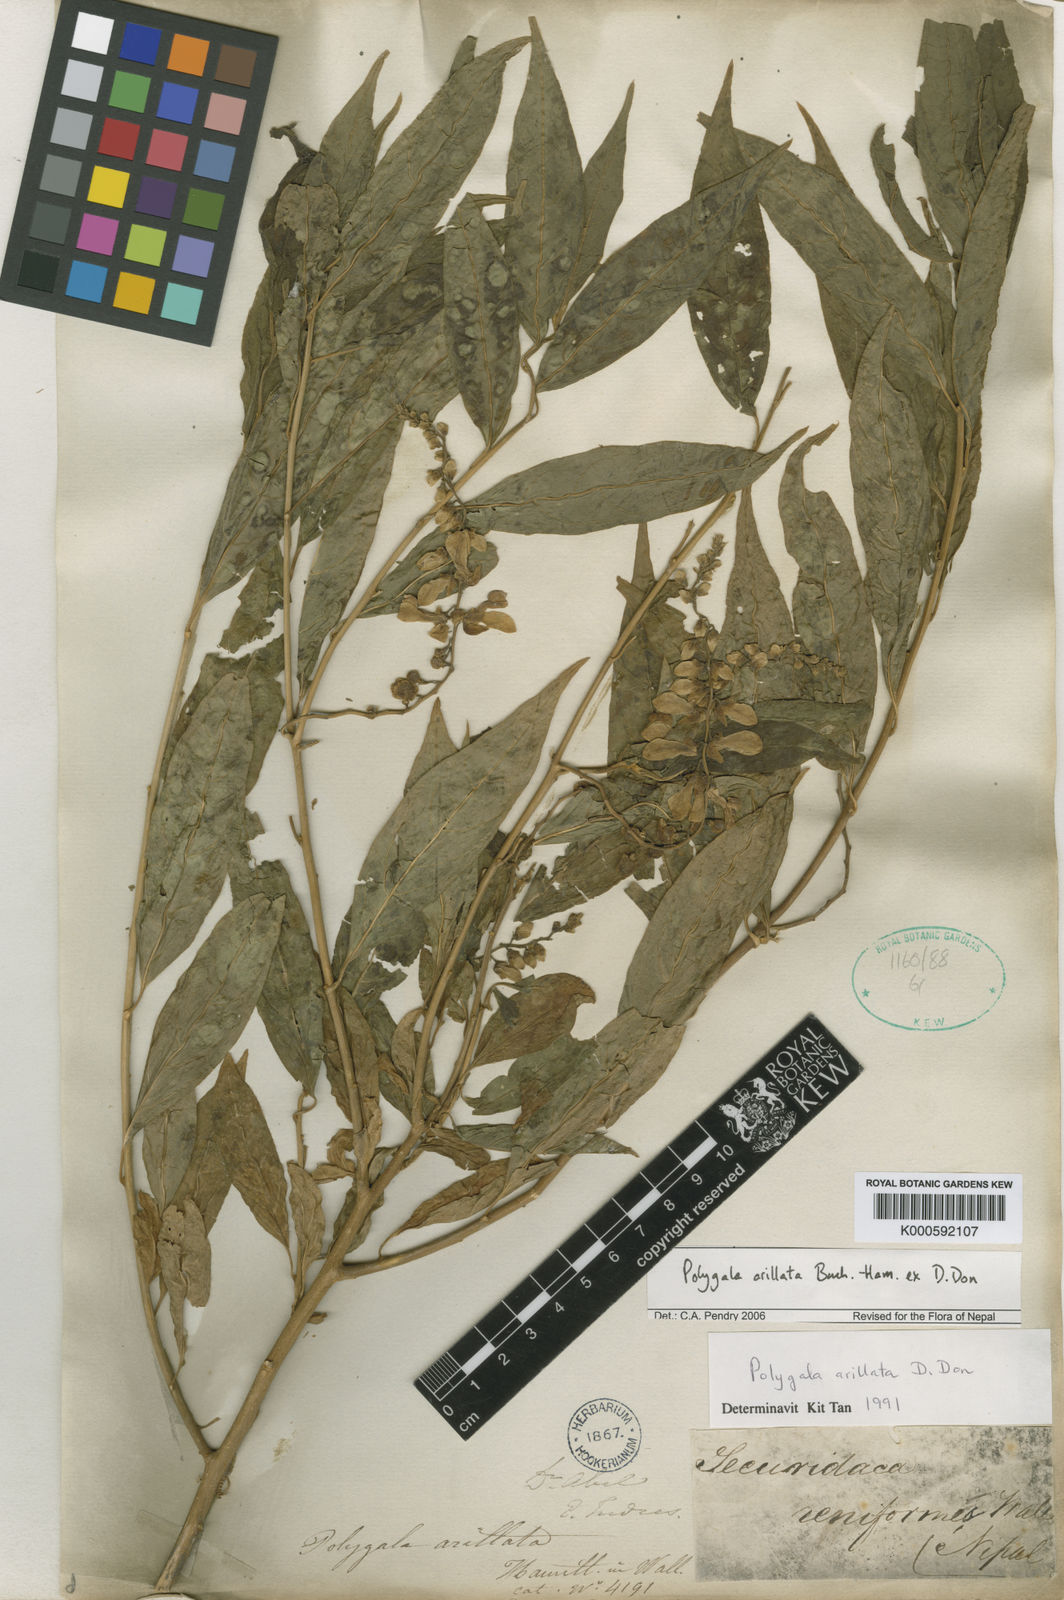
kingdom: Plantae
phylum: Tracheophyta
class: Magnoliopsida
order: Fabales
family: Polygalaceae
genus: Polygala
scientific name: Polygala arillata
